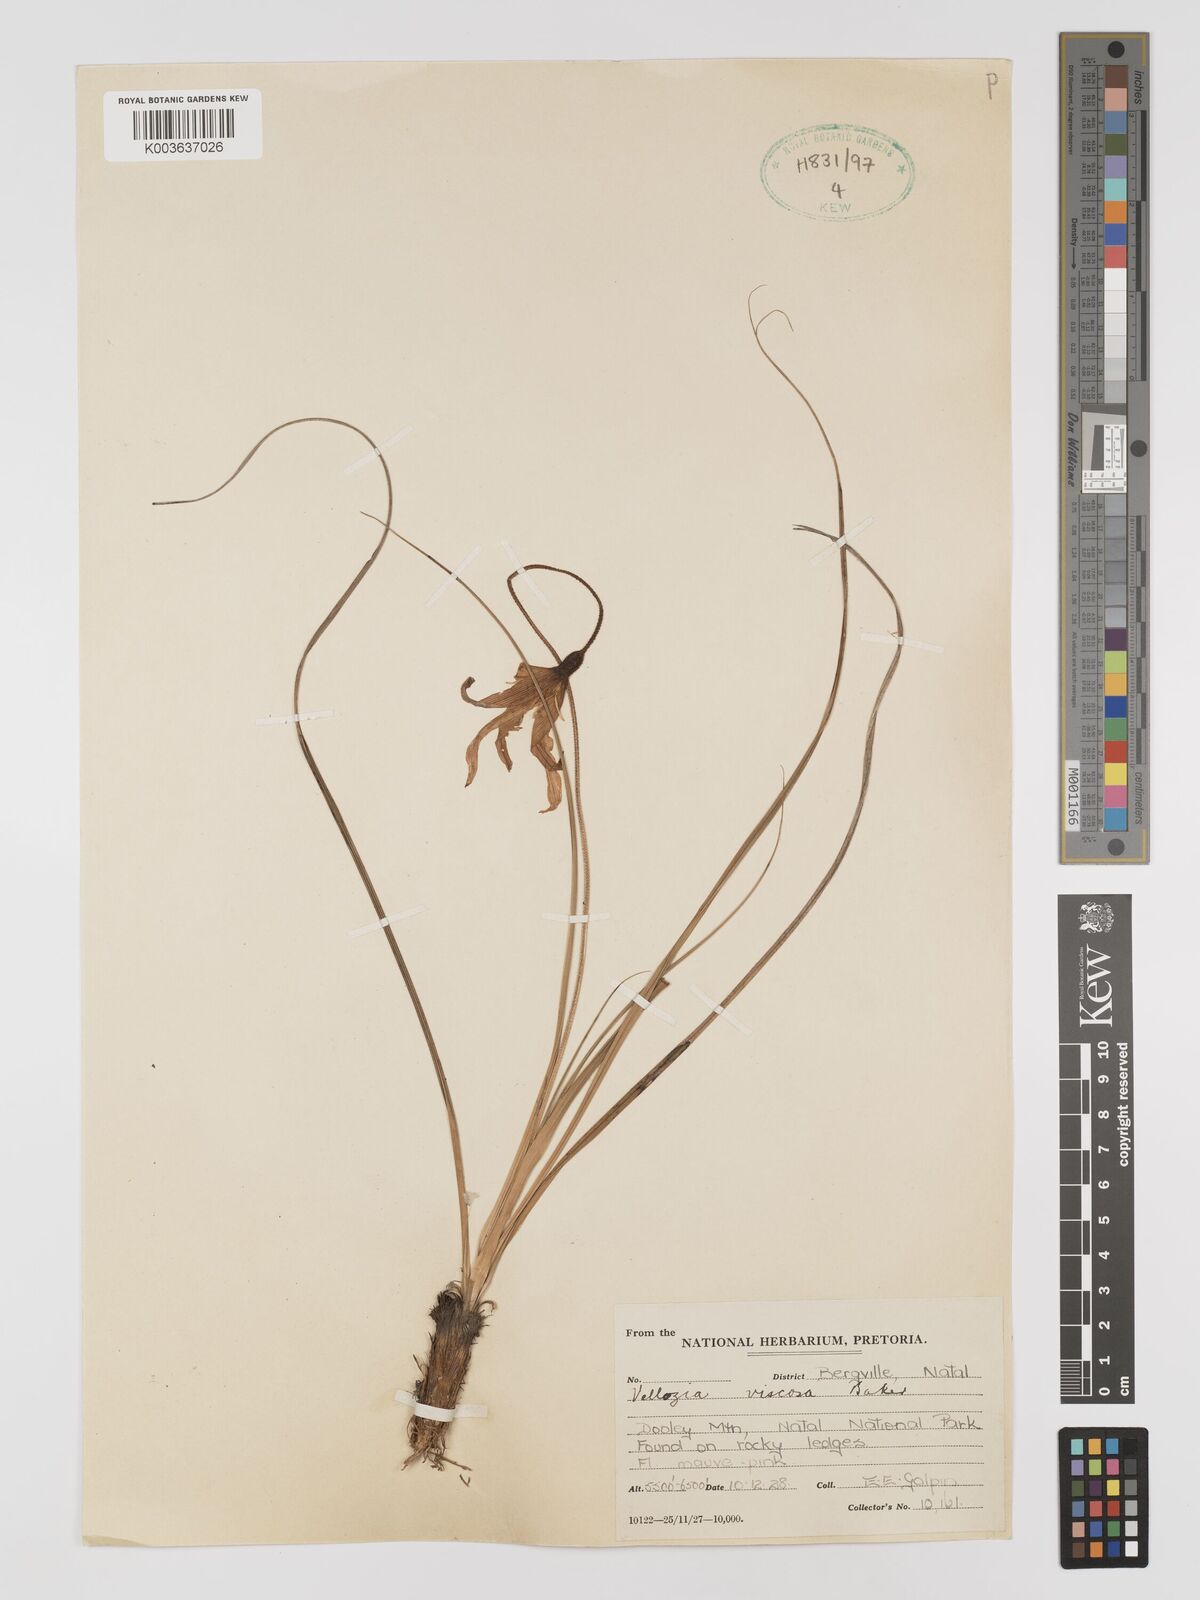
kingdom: Plantae
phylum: Tracheophyta
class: Liliopsida
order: Pandanales
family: Velloziaceae
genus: Xerophyta
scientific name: Xerophyta viscosa
